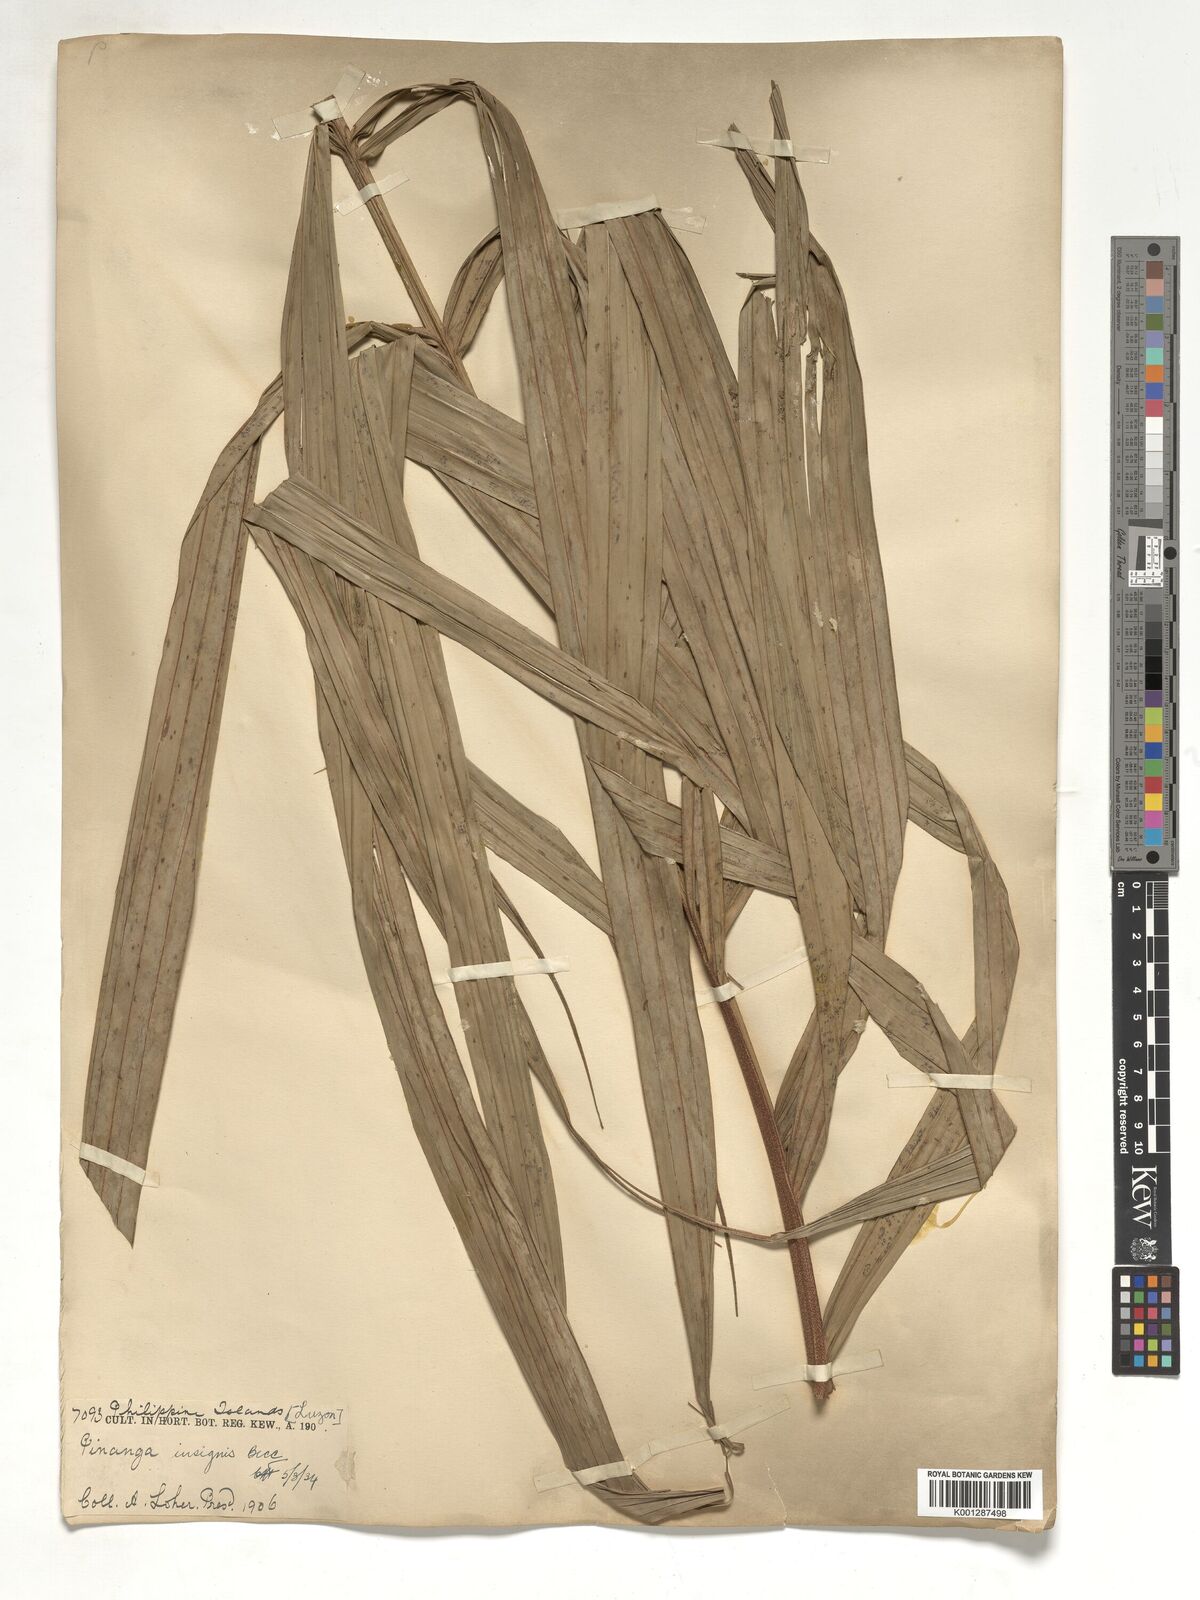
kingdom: Plantae
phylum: Tracheophyta
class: Liliopsida
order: Arecales
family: Arecaceae
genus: Pinanga
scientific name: Pinanga insignis
